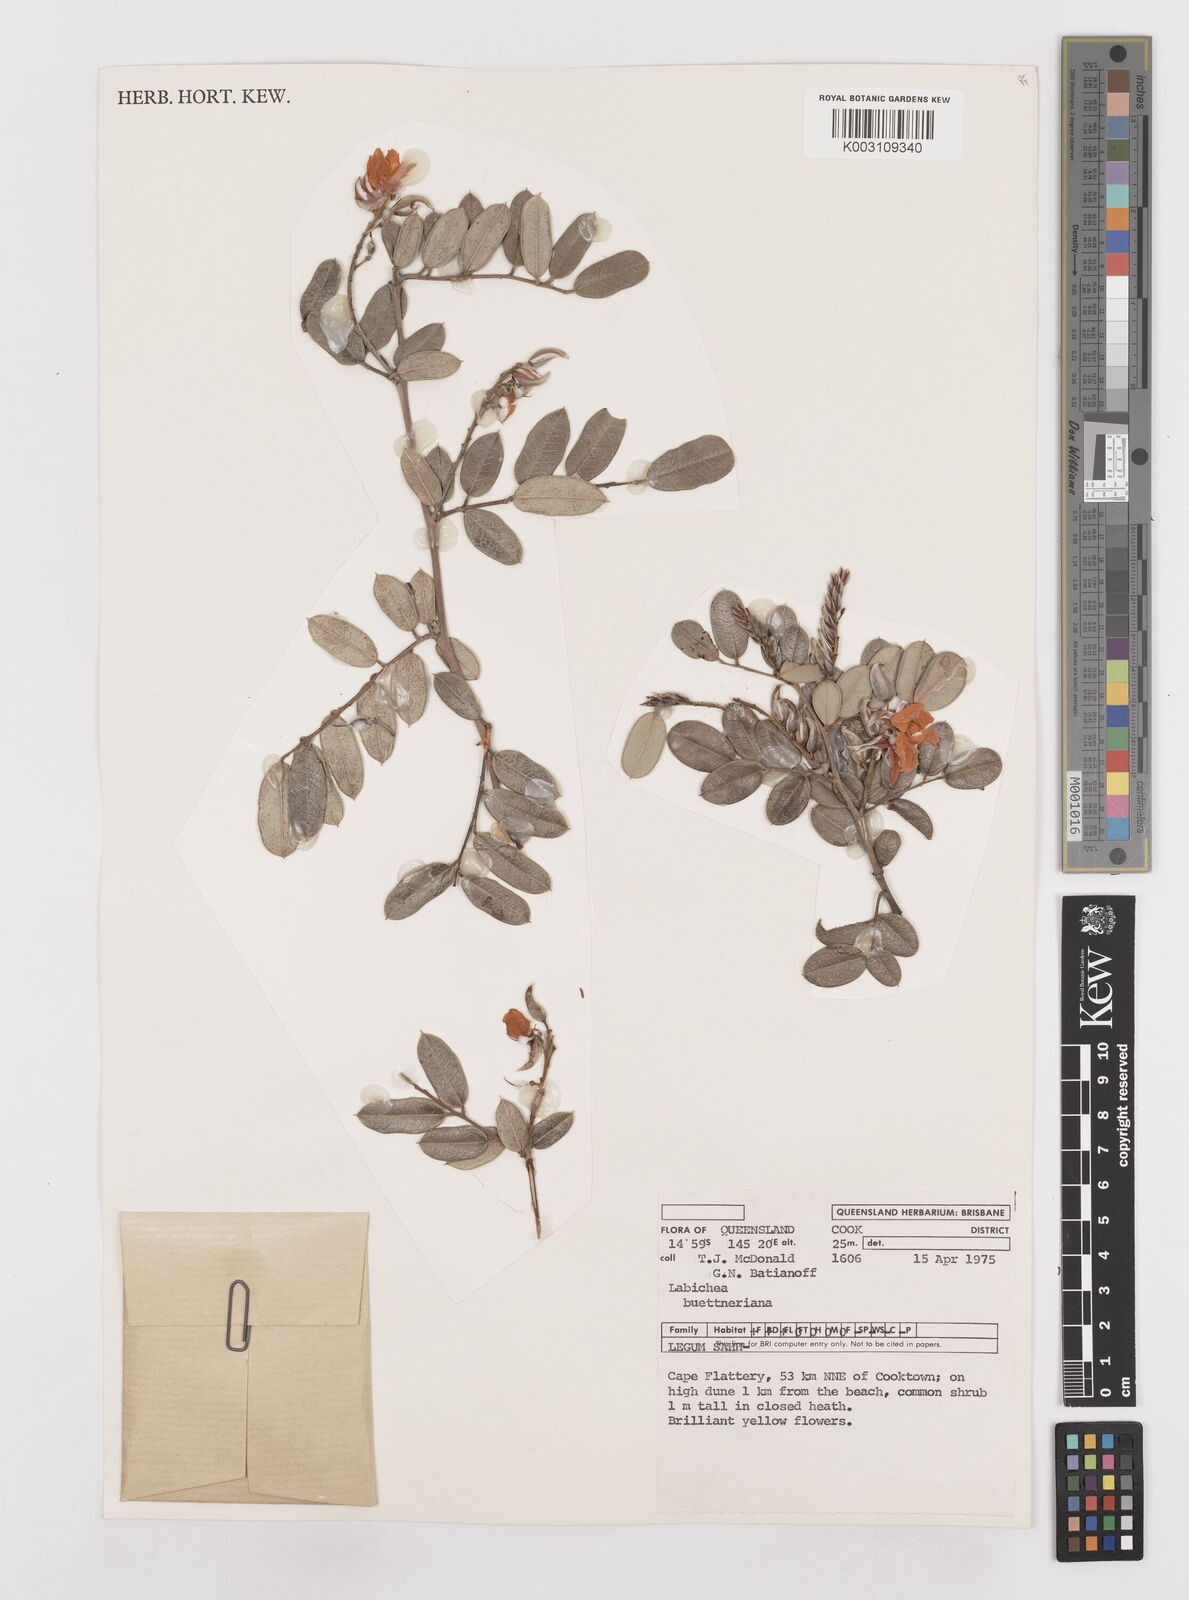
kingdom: Plantae
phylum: Tracheophyta
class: Magnoliopsida
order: Fabales
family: Fabaceae
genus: Labichea
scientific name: Labichea buettneriana
